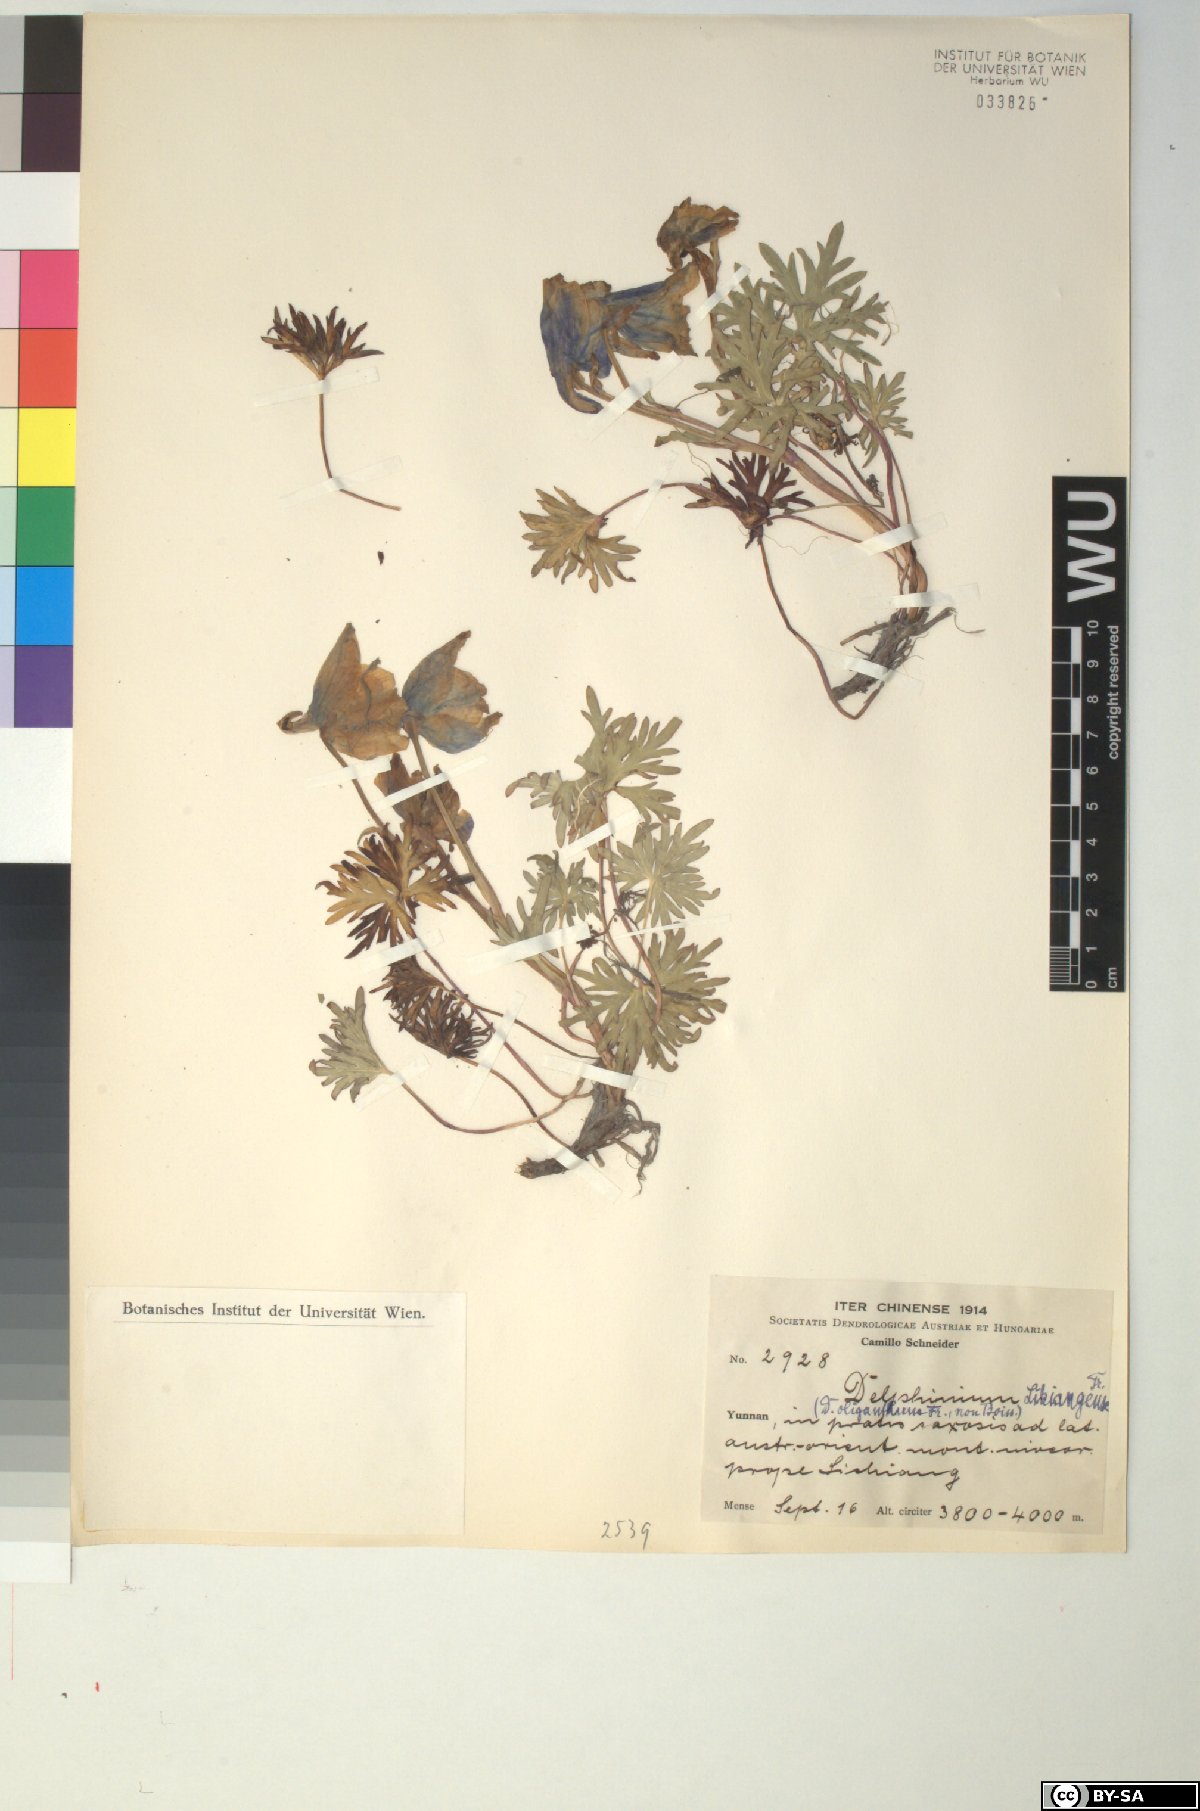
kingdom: Plantae
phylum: Tracheophyta
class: Magnoliopsida
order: Ranunculales
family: Ranunculaceae
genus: Delphinium
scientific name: Delphinium likiangense
